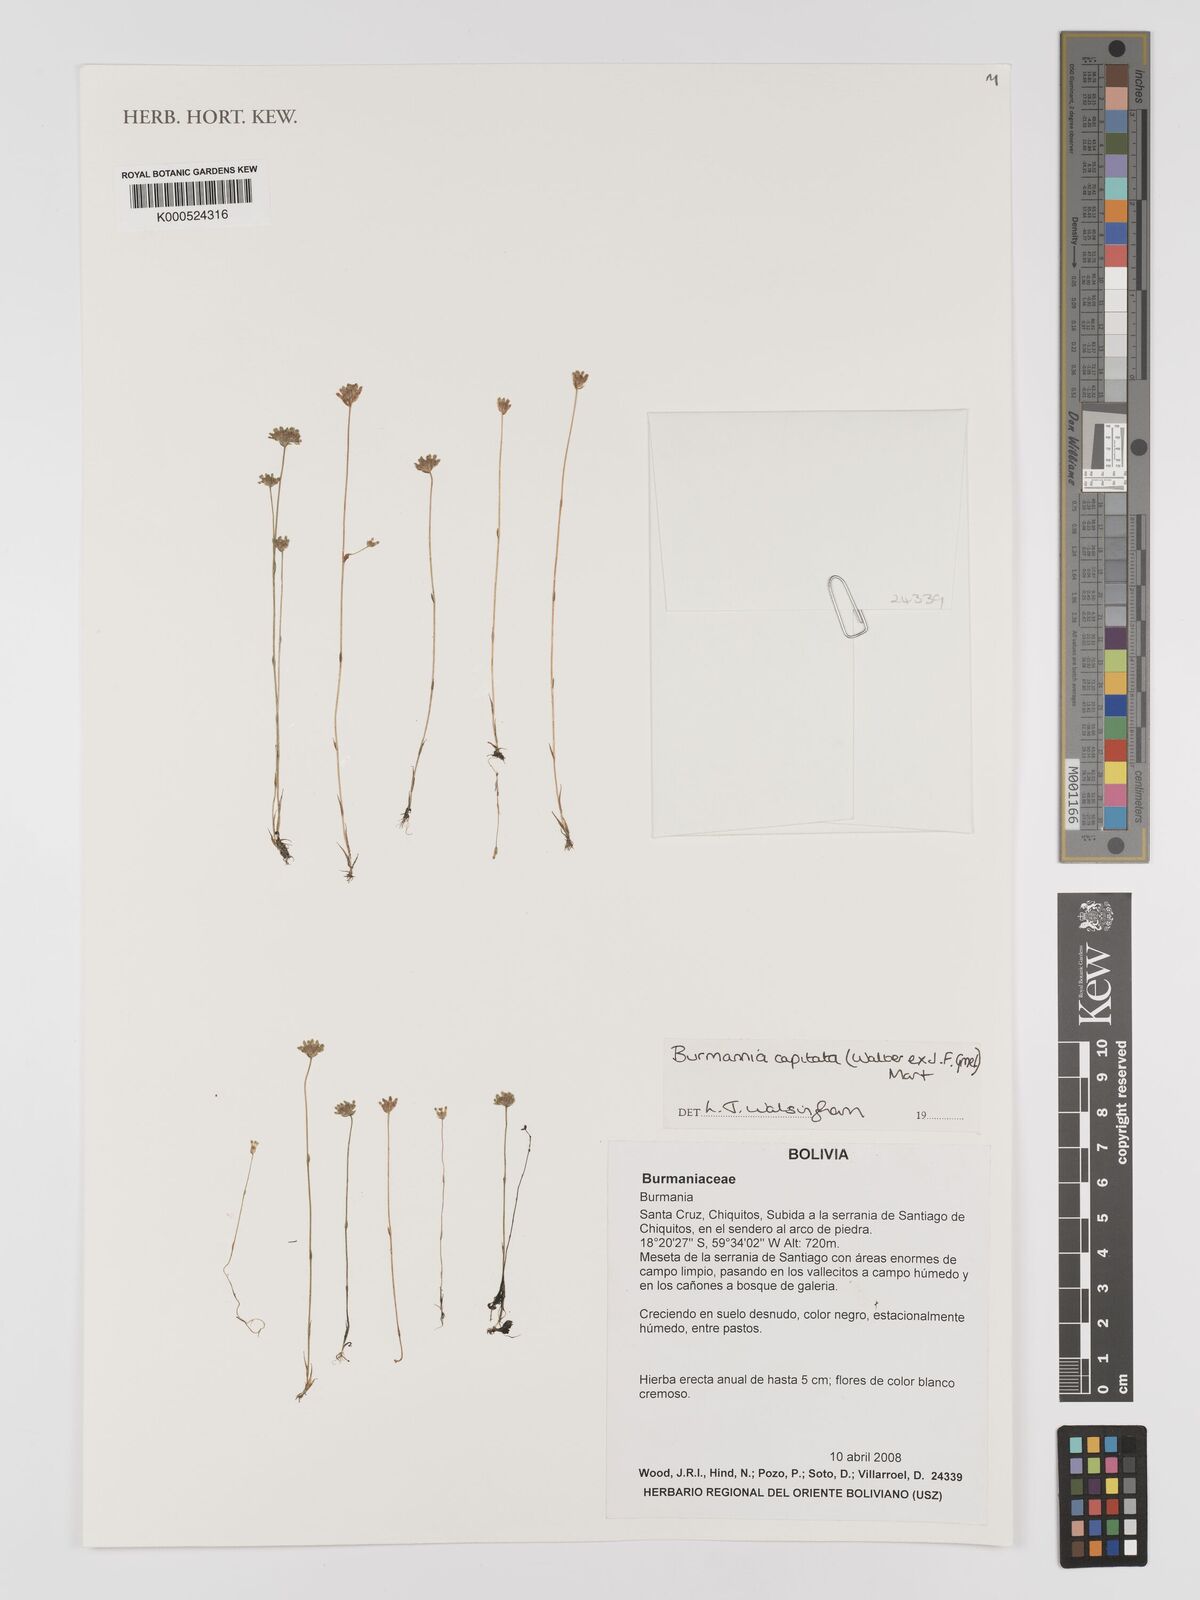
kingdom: Plantae
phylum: Tracheophyta
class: Liliopsida
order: Dioscoreales
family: Burmanniaceae
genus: Burmannia
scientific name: Burmannia capitata
